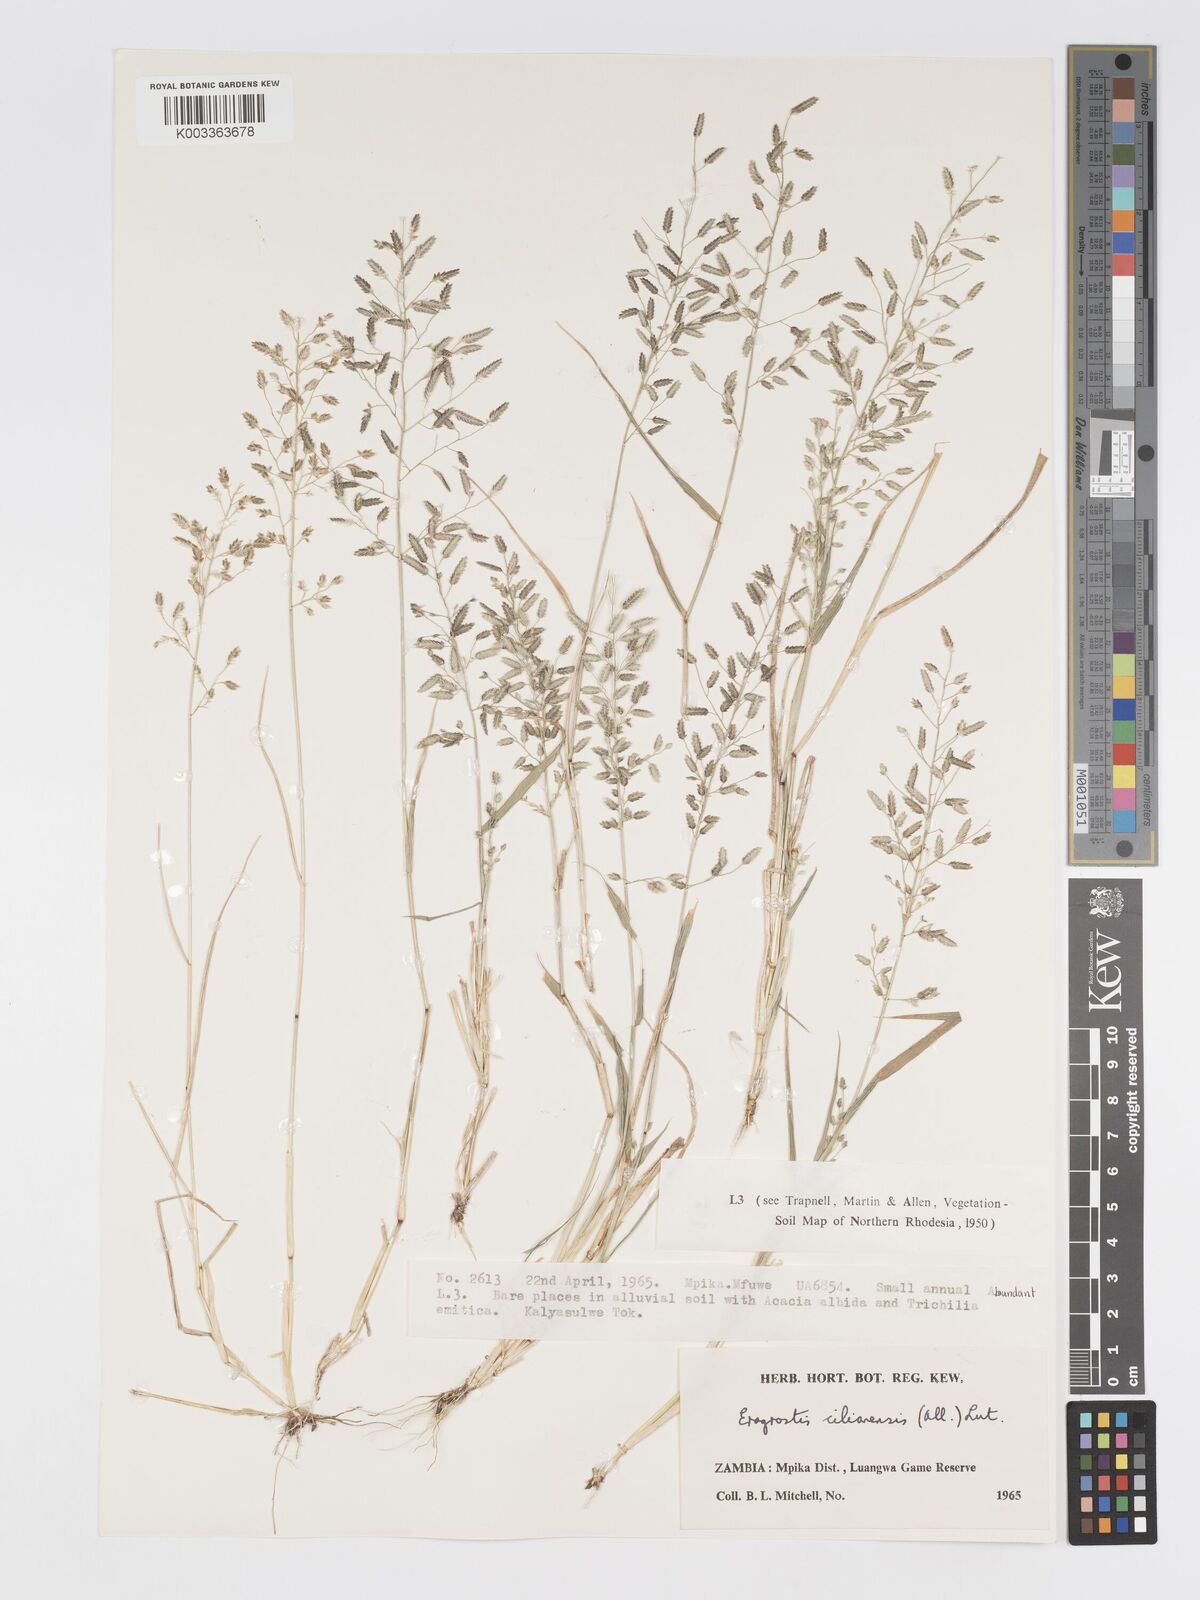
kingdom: Plantae
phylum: Tracheophyta
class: Liliopsida
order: Poales
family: Poaceae
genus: Eragrostis
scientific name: Eragrostis cilianensis
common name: Stinkgrass
